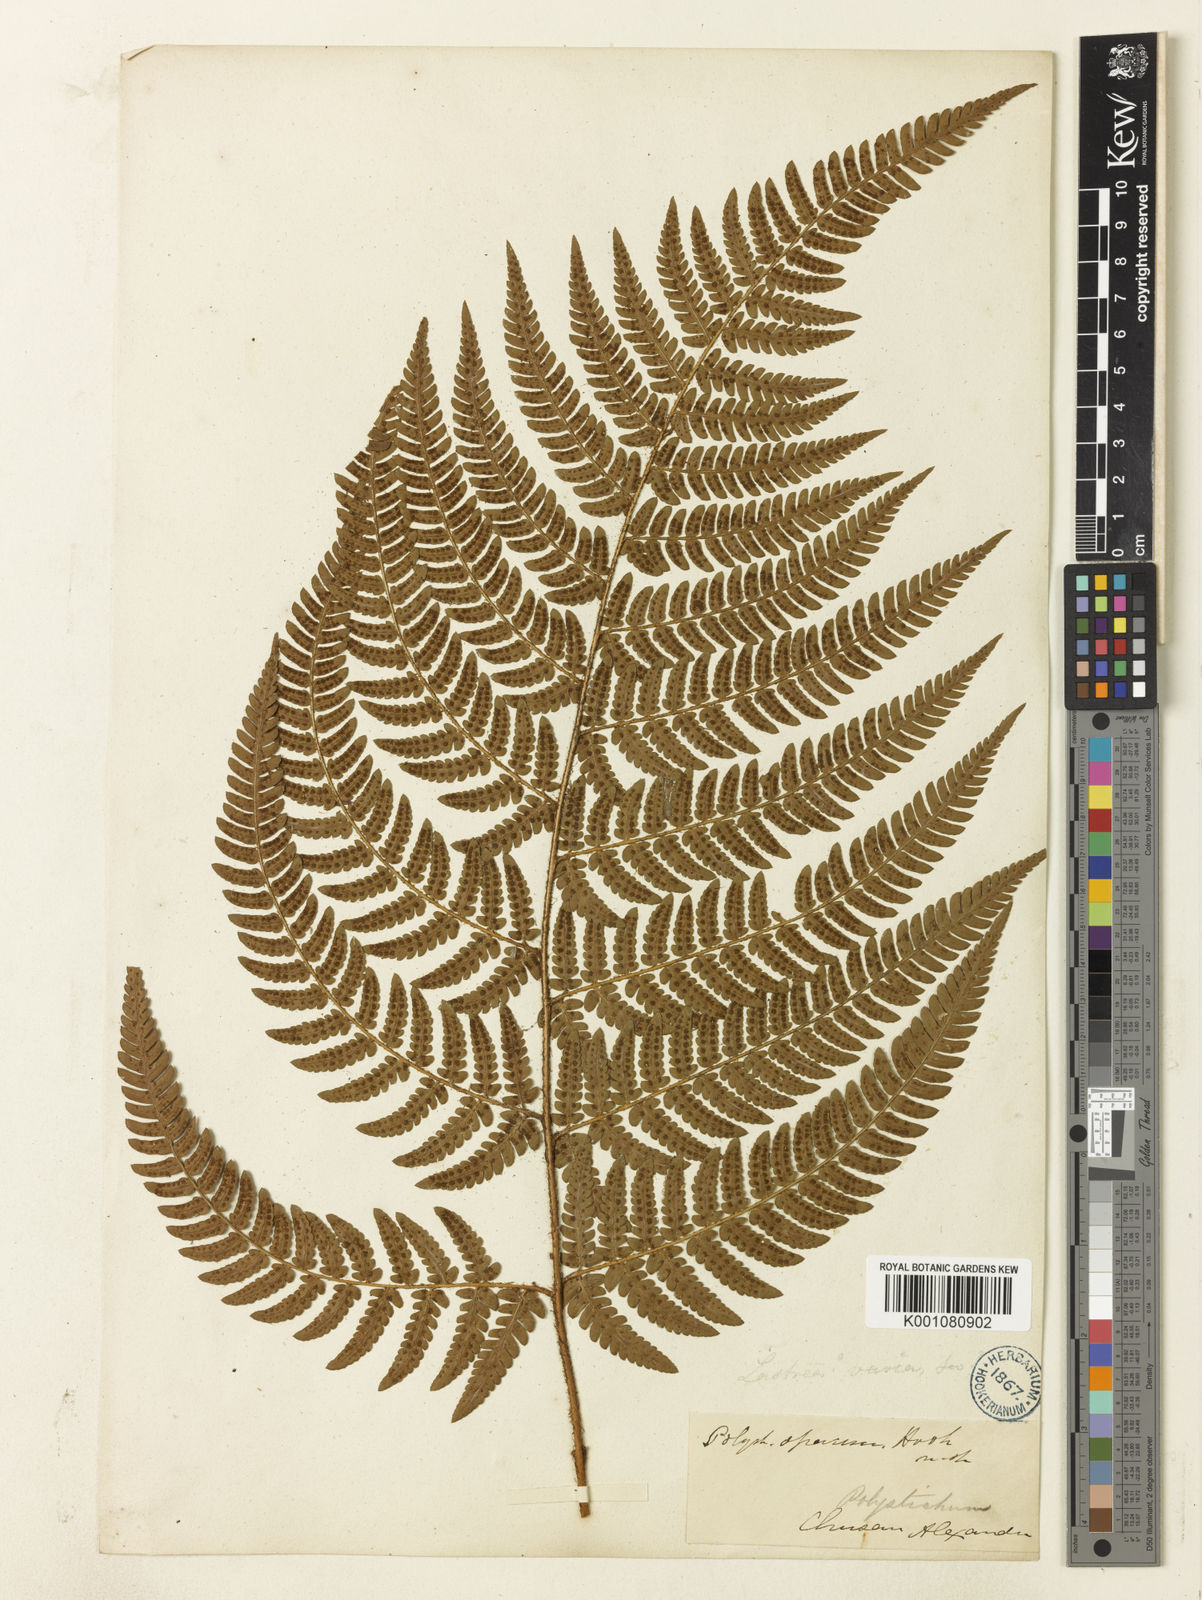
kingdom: Plantae
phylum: Tracheophyta
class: Polypodiopsida
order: Polypodiales
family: Dryopteridaceae
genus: Dryopteris
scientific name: Dryopteris varia
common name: Japanese holly fern
